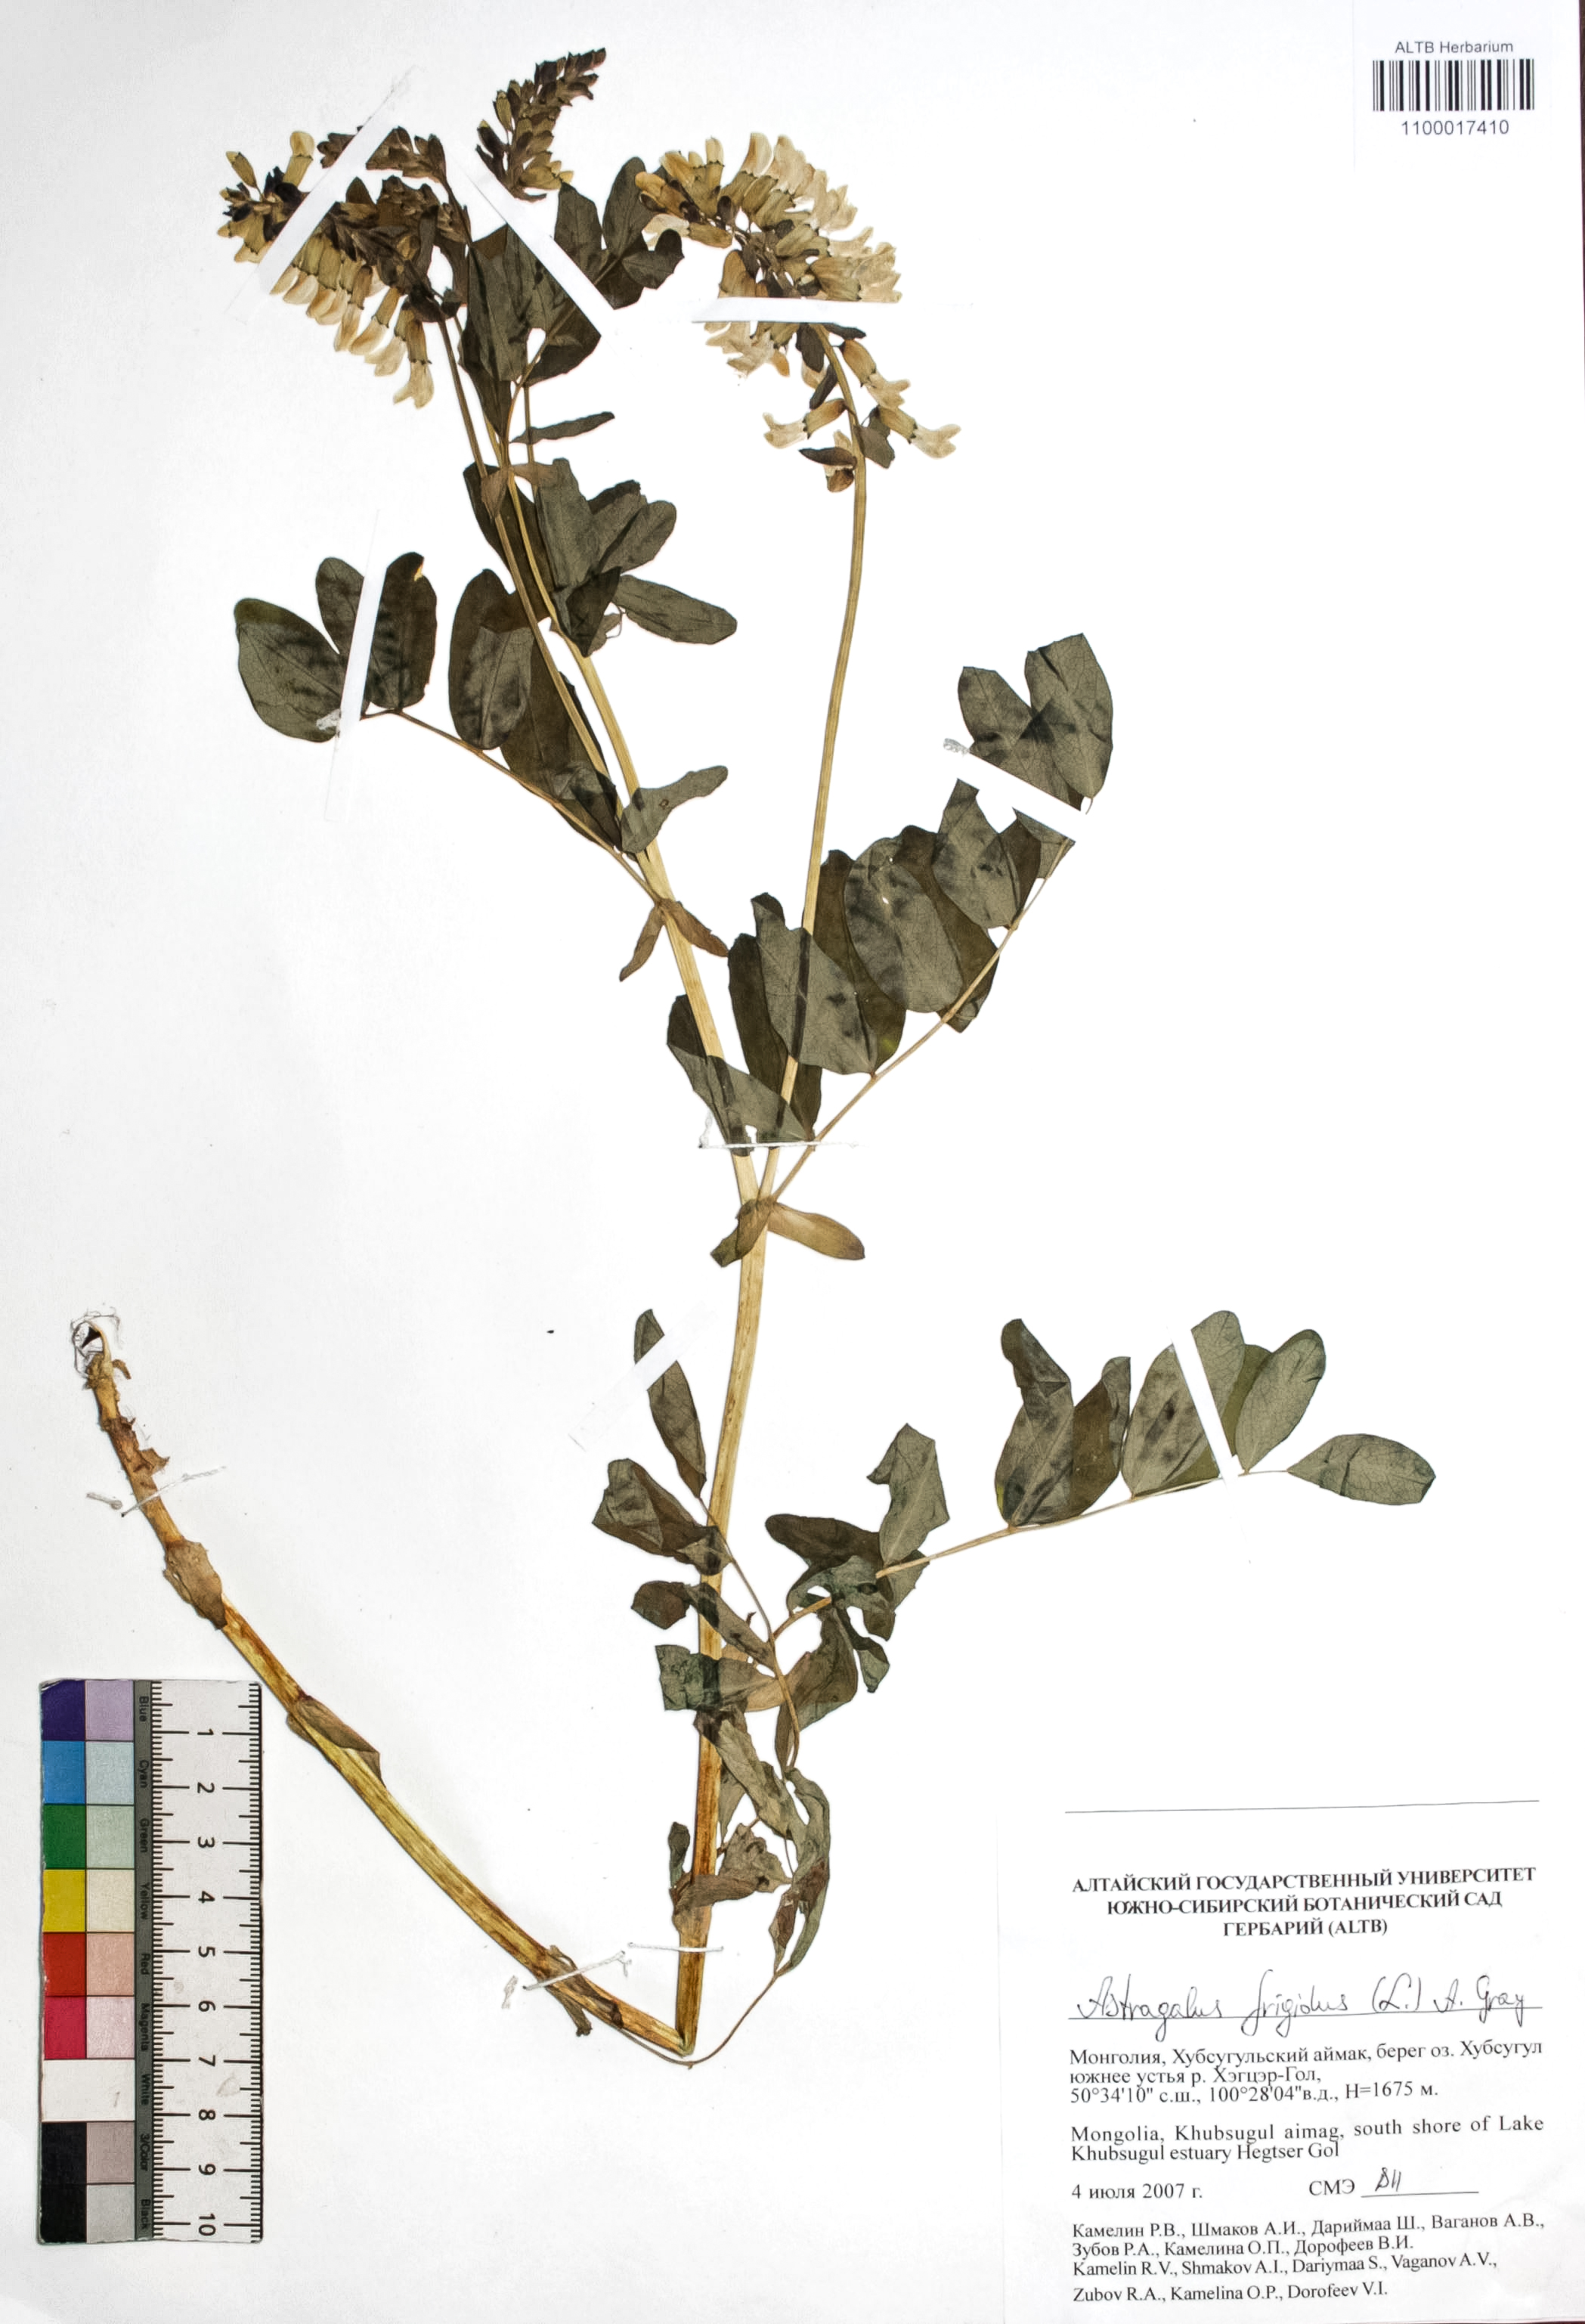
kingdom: Plantae
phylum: Tracheophyta
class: Magnoliopsida
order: Fabales
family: Fabaceae
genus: Astragalus
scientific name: Astragalus frigidus
